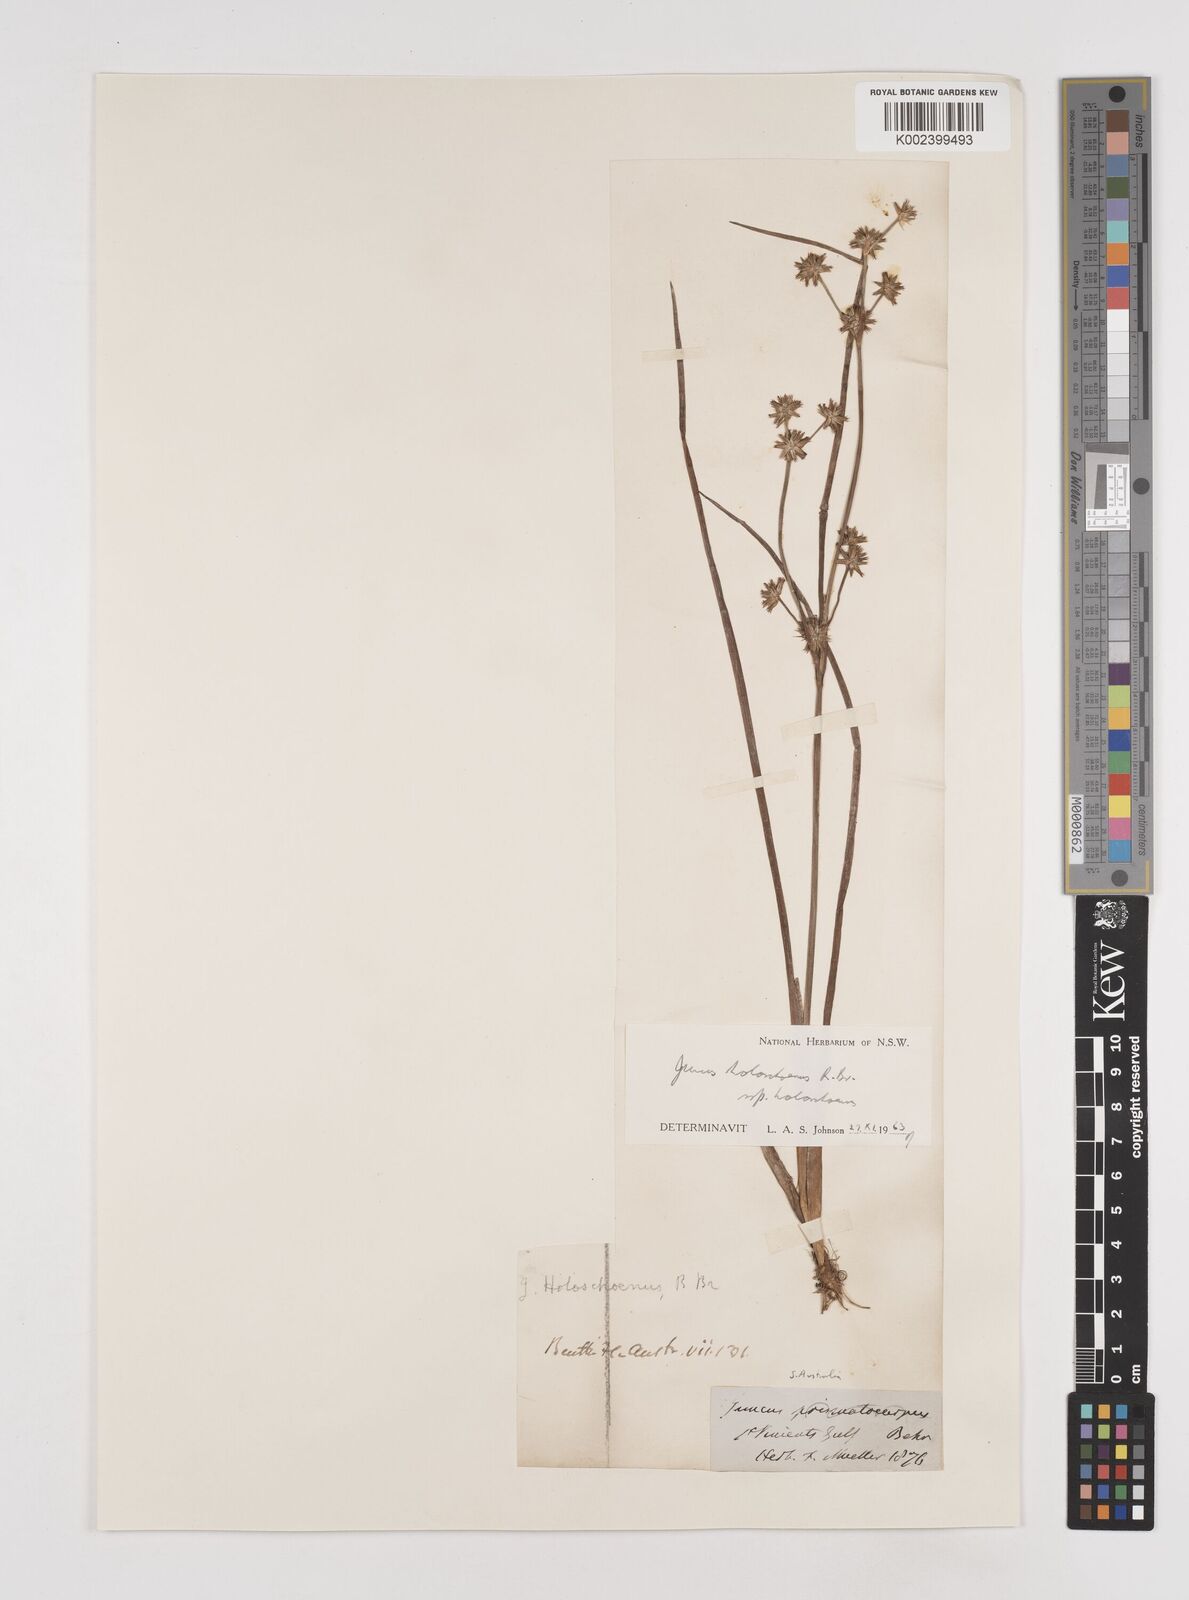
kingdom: Plantae
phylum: Tracheophyta
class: Liliopsida
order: Poales
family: Juncaceae
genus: Juncus
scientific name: Juncus holoschoenus
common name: Joint-leaf rush
